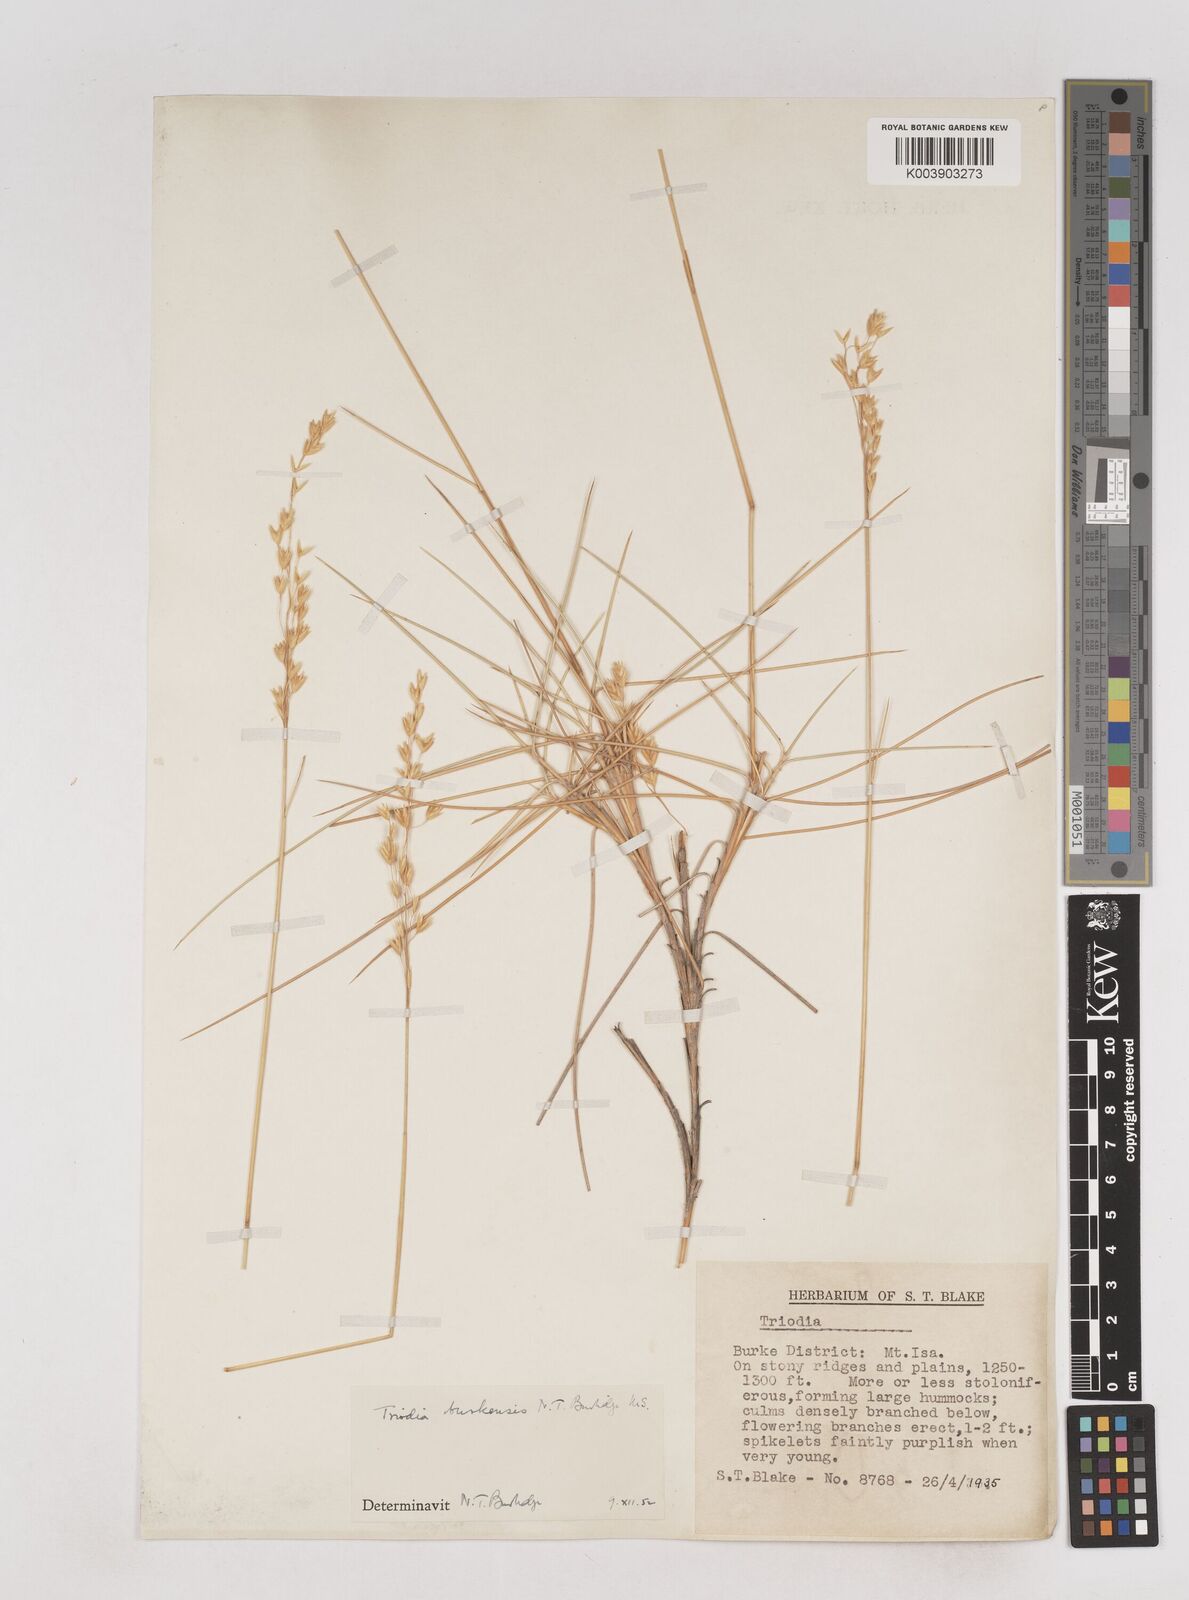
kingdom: Plantae
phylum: Tracheophyta
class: Liliopsida
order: Poales
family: Poaceae
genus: Triodia
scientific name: Triodia brizoides
